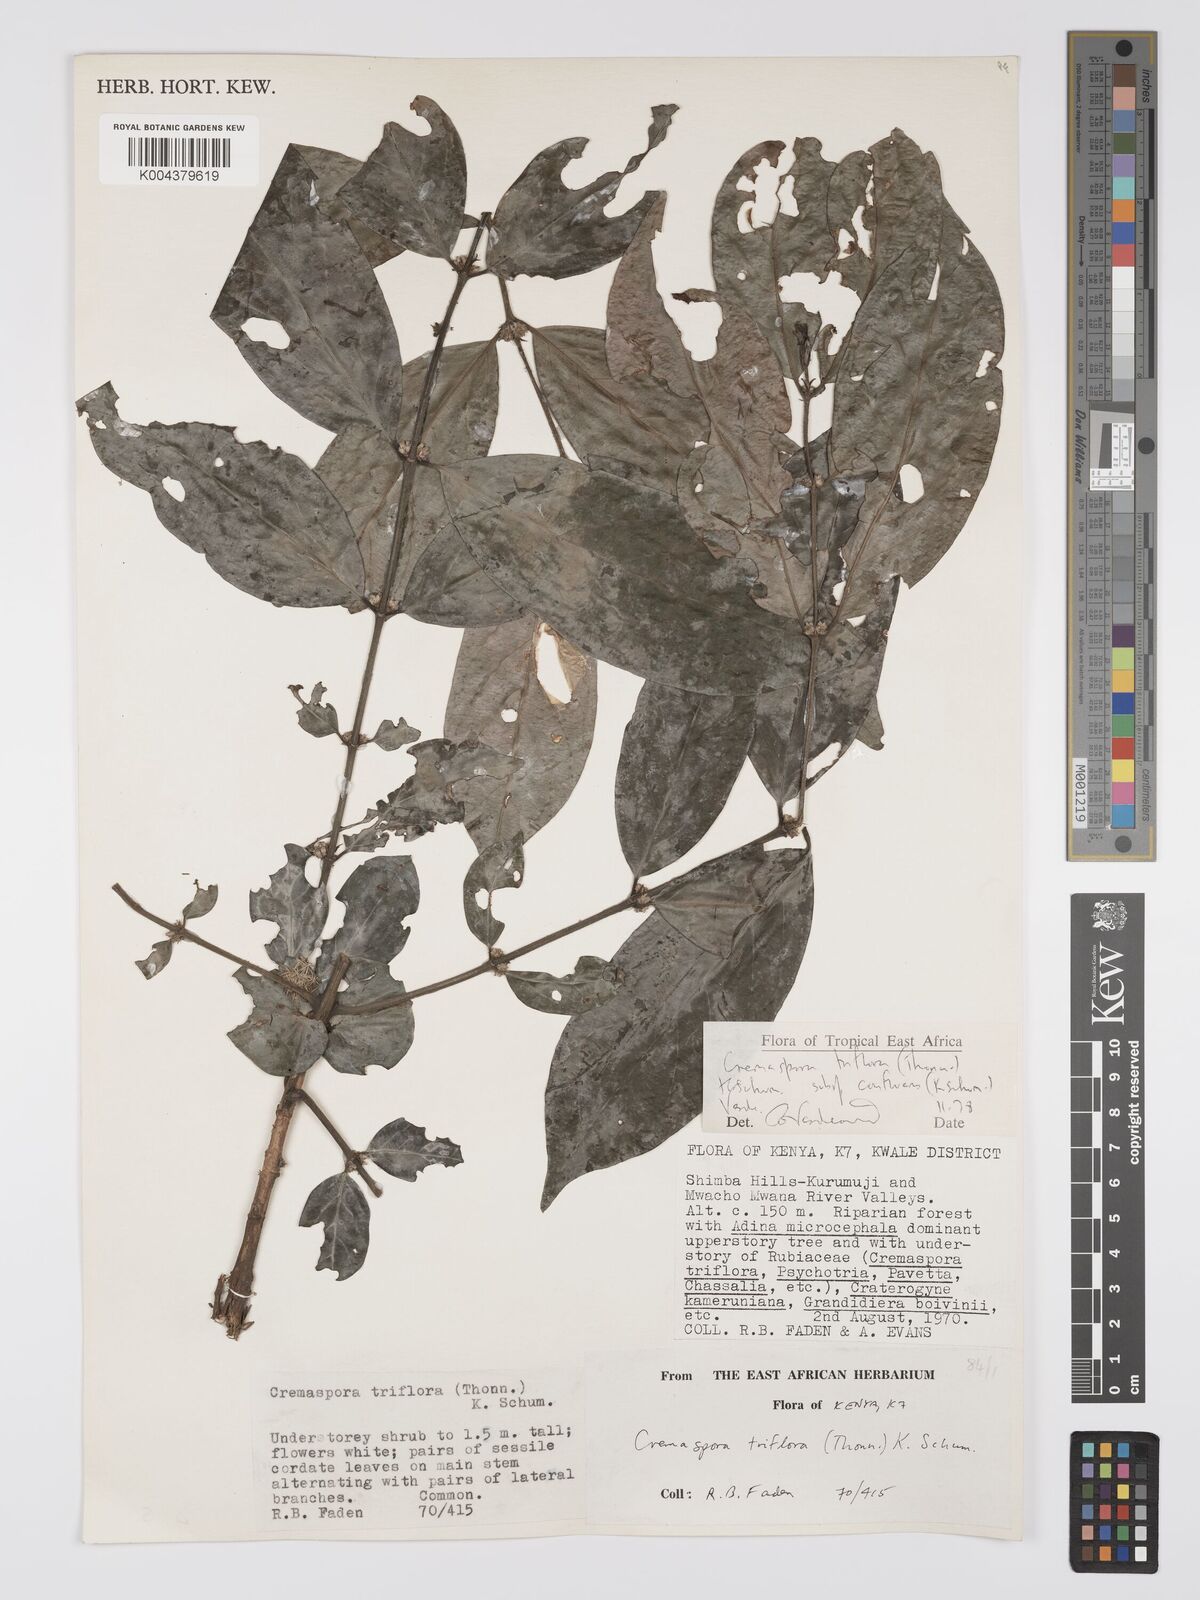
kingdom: Plantae
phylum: Tracheophyta
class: Magnoliopsida
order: Gentianales
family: Rubiaceae
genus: Cremaspora
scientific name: Cremaspora triflora
